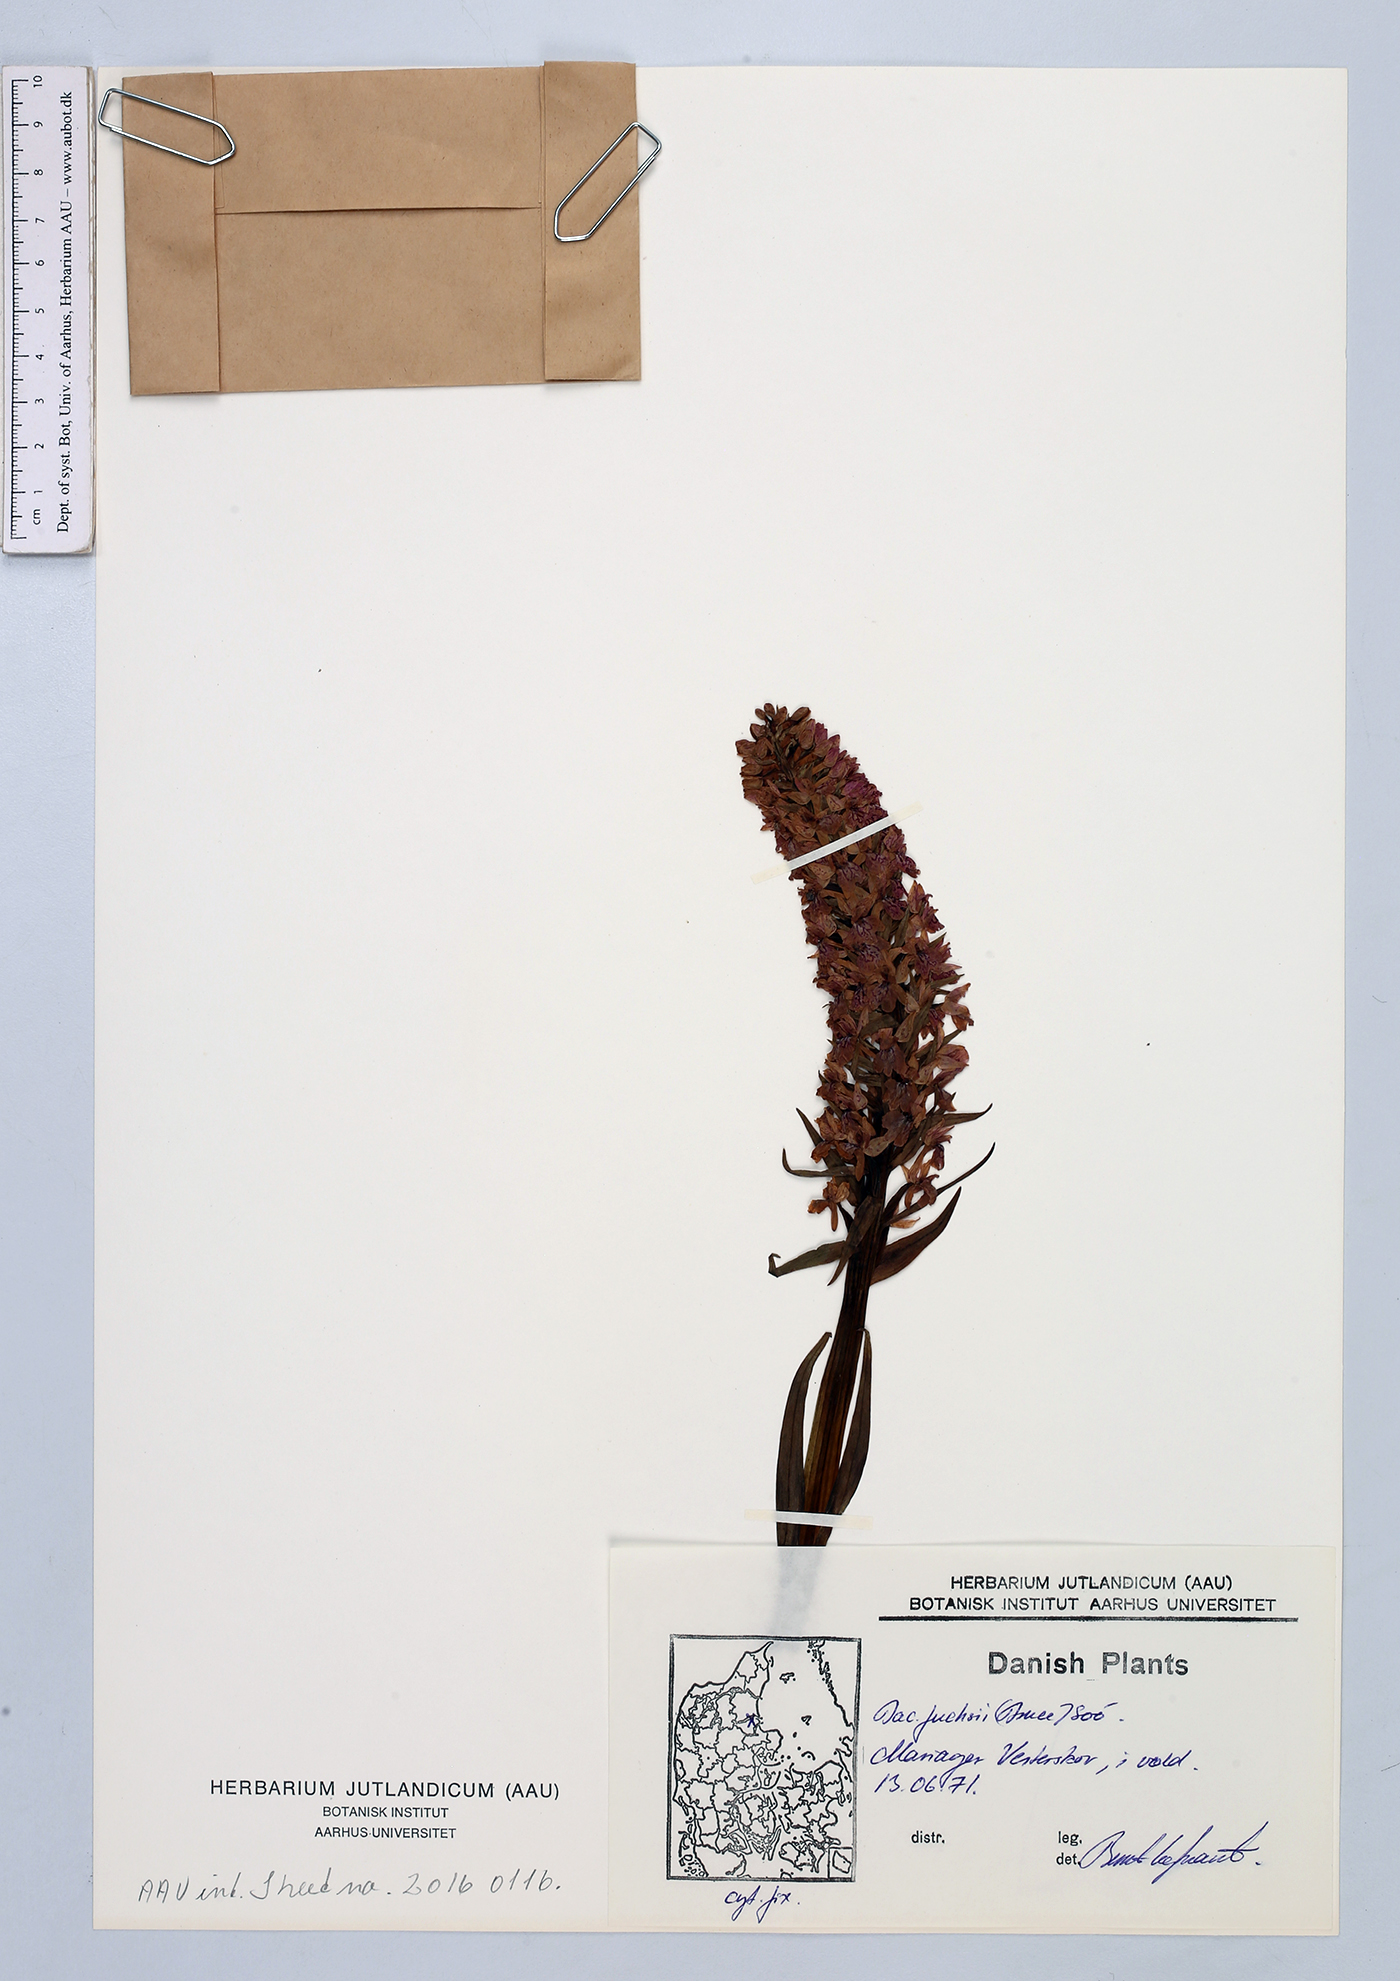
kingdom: Plantae
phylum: Tracheophyta
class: Liliopsida
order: Asparagales
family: Orchidaceae
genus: Dactylorhiza
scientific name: Dactylorhiza maculata
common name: Heath spotted-orchid
